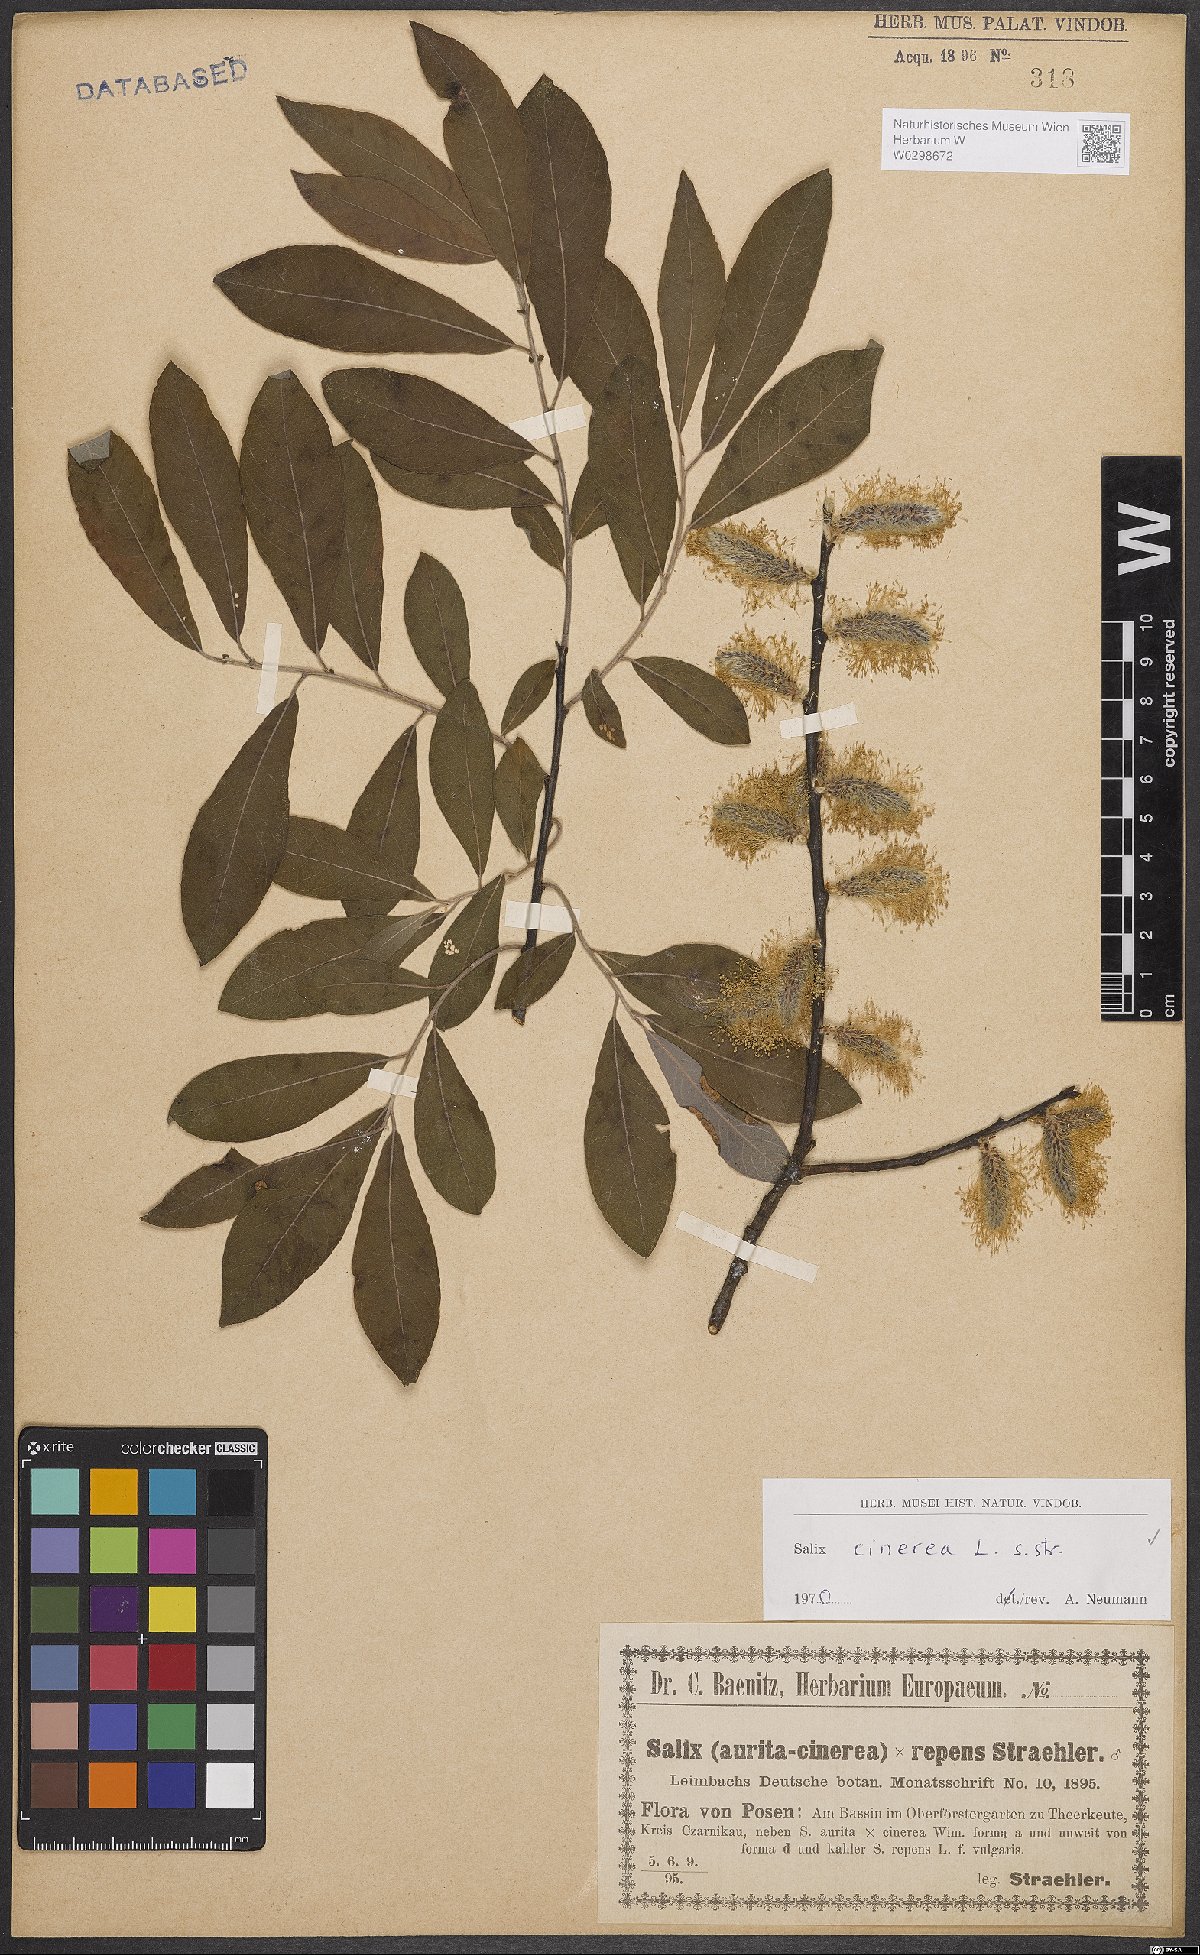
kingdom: Plantae
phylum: Tracheophyta
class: Magnoliopsida
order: Malpighiales
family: Salicaceae
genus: Salix
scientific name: Salix cinerea
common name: Common sallow
